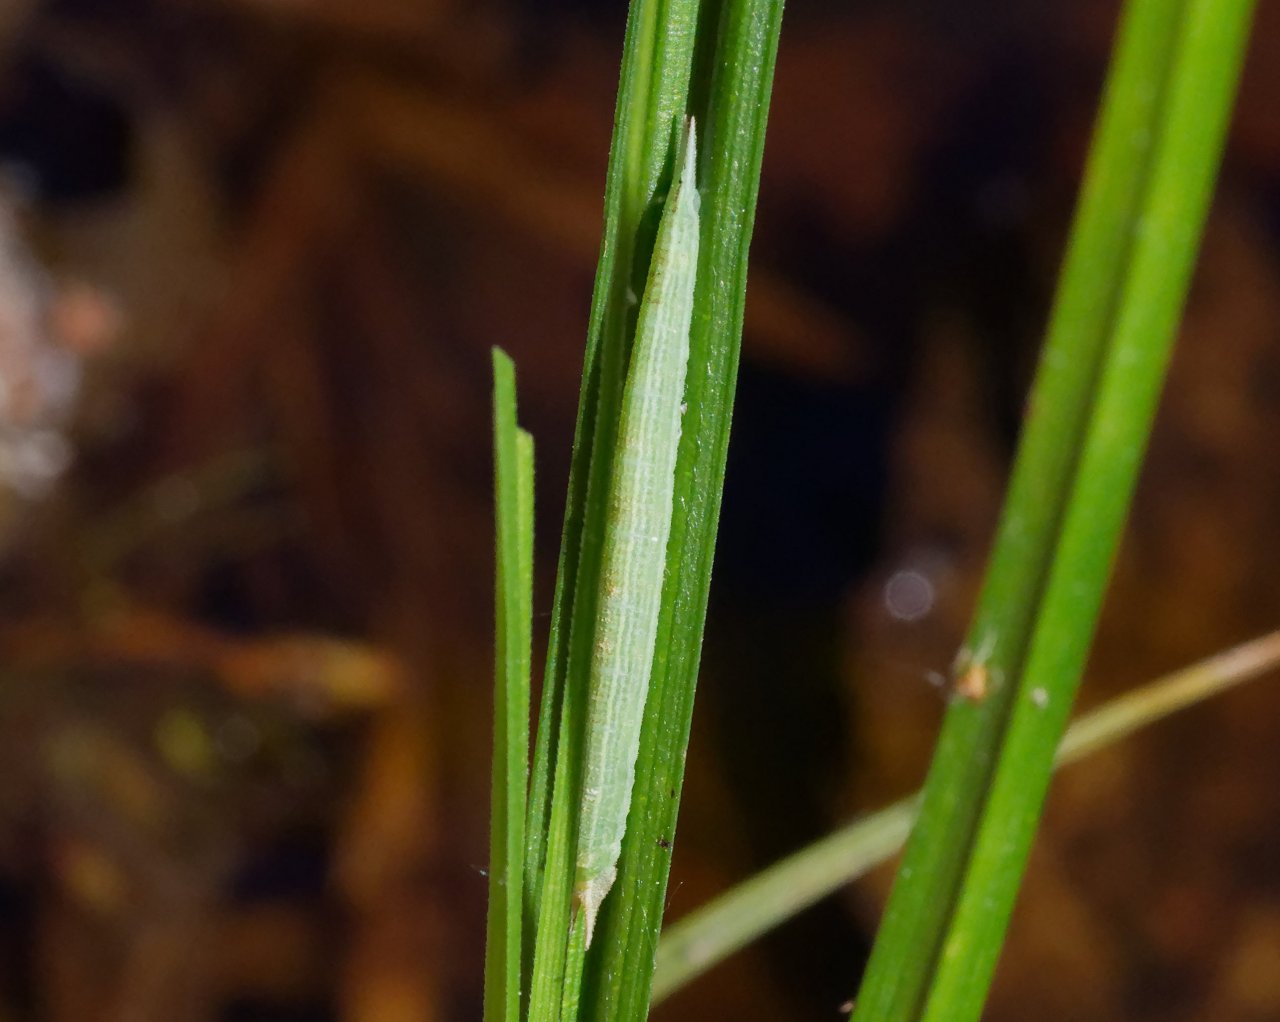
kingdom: Animalia
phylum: Arthropoda
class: Insecta
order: Lepidoptera
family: Nymphalidae
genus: Lethe
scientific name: Lethe eurydice
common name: Appalachian Eyed Brown
